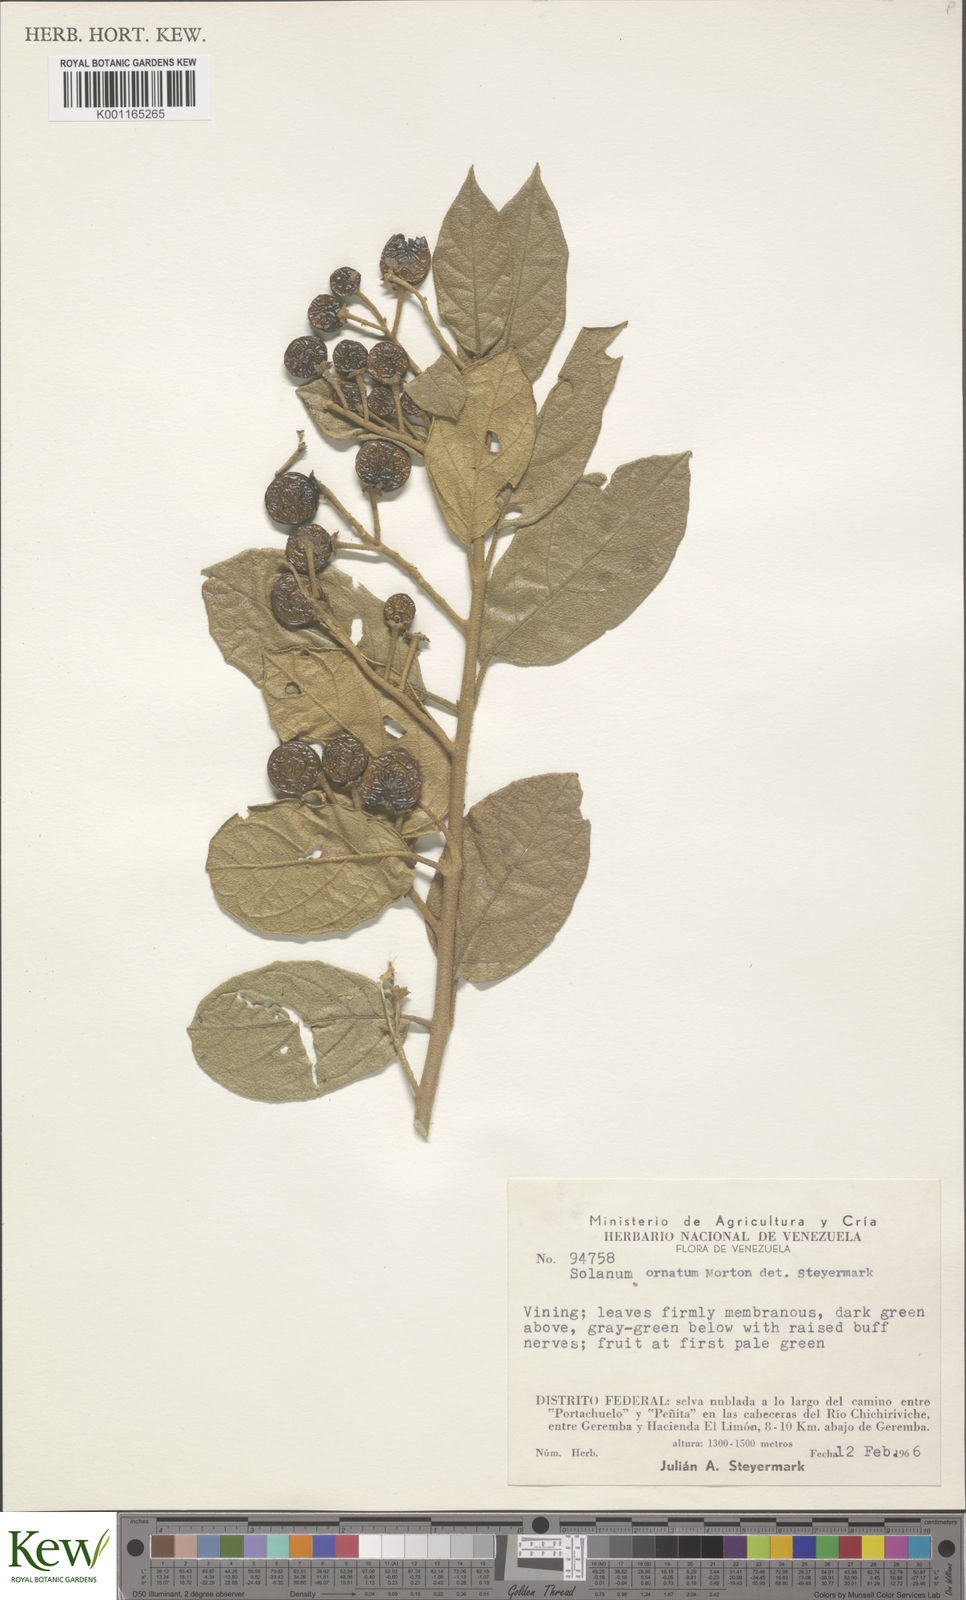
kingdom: Plantae
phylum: Tracheophyta
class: Magnoliopsida
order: Solanales
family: Solanaceae
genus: Lycianthes
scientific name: Lycianthes ferruginea
